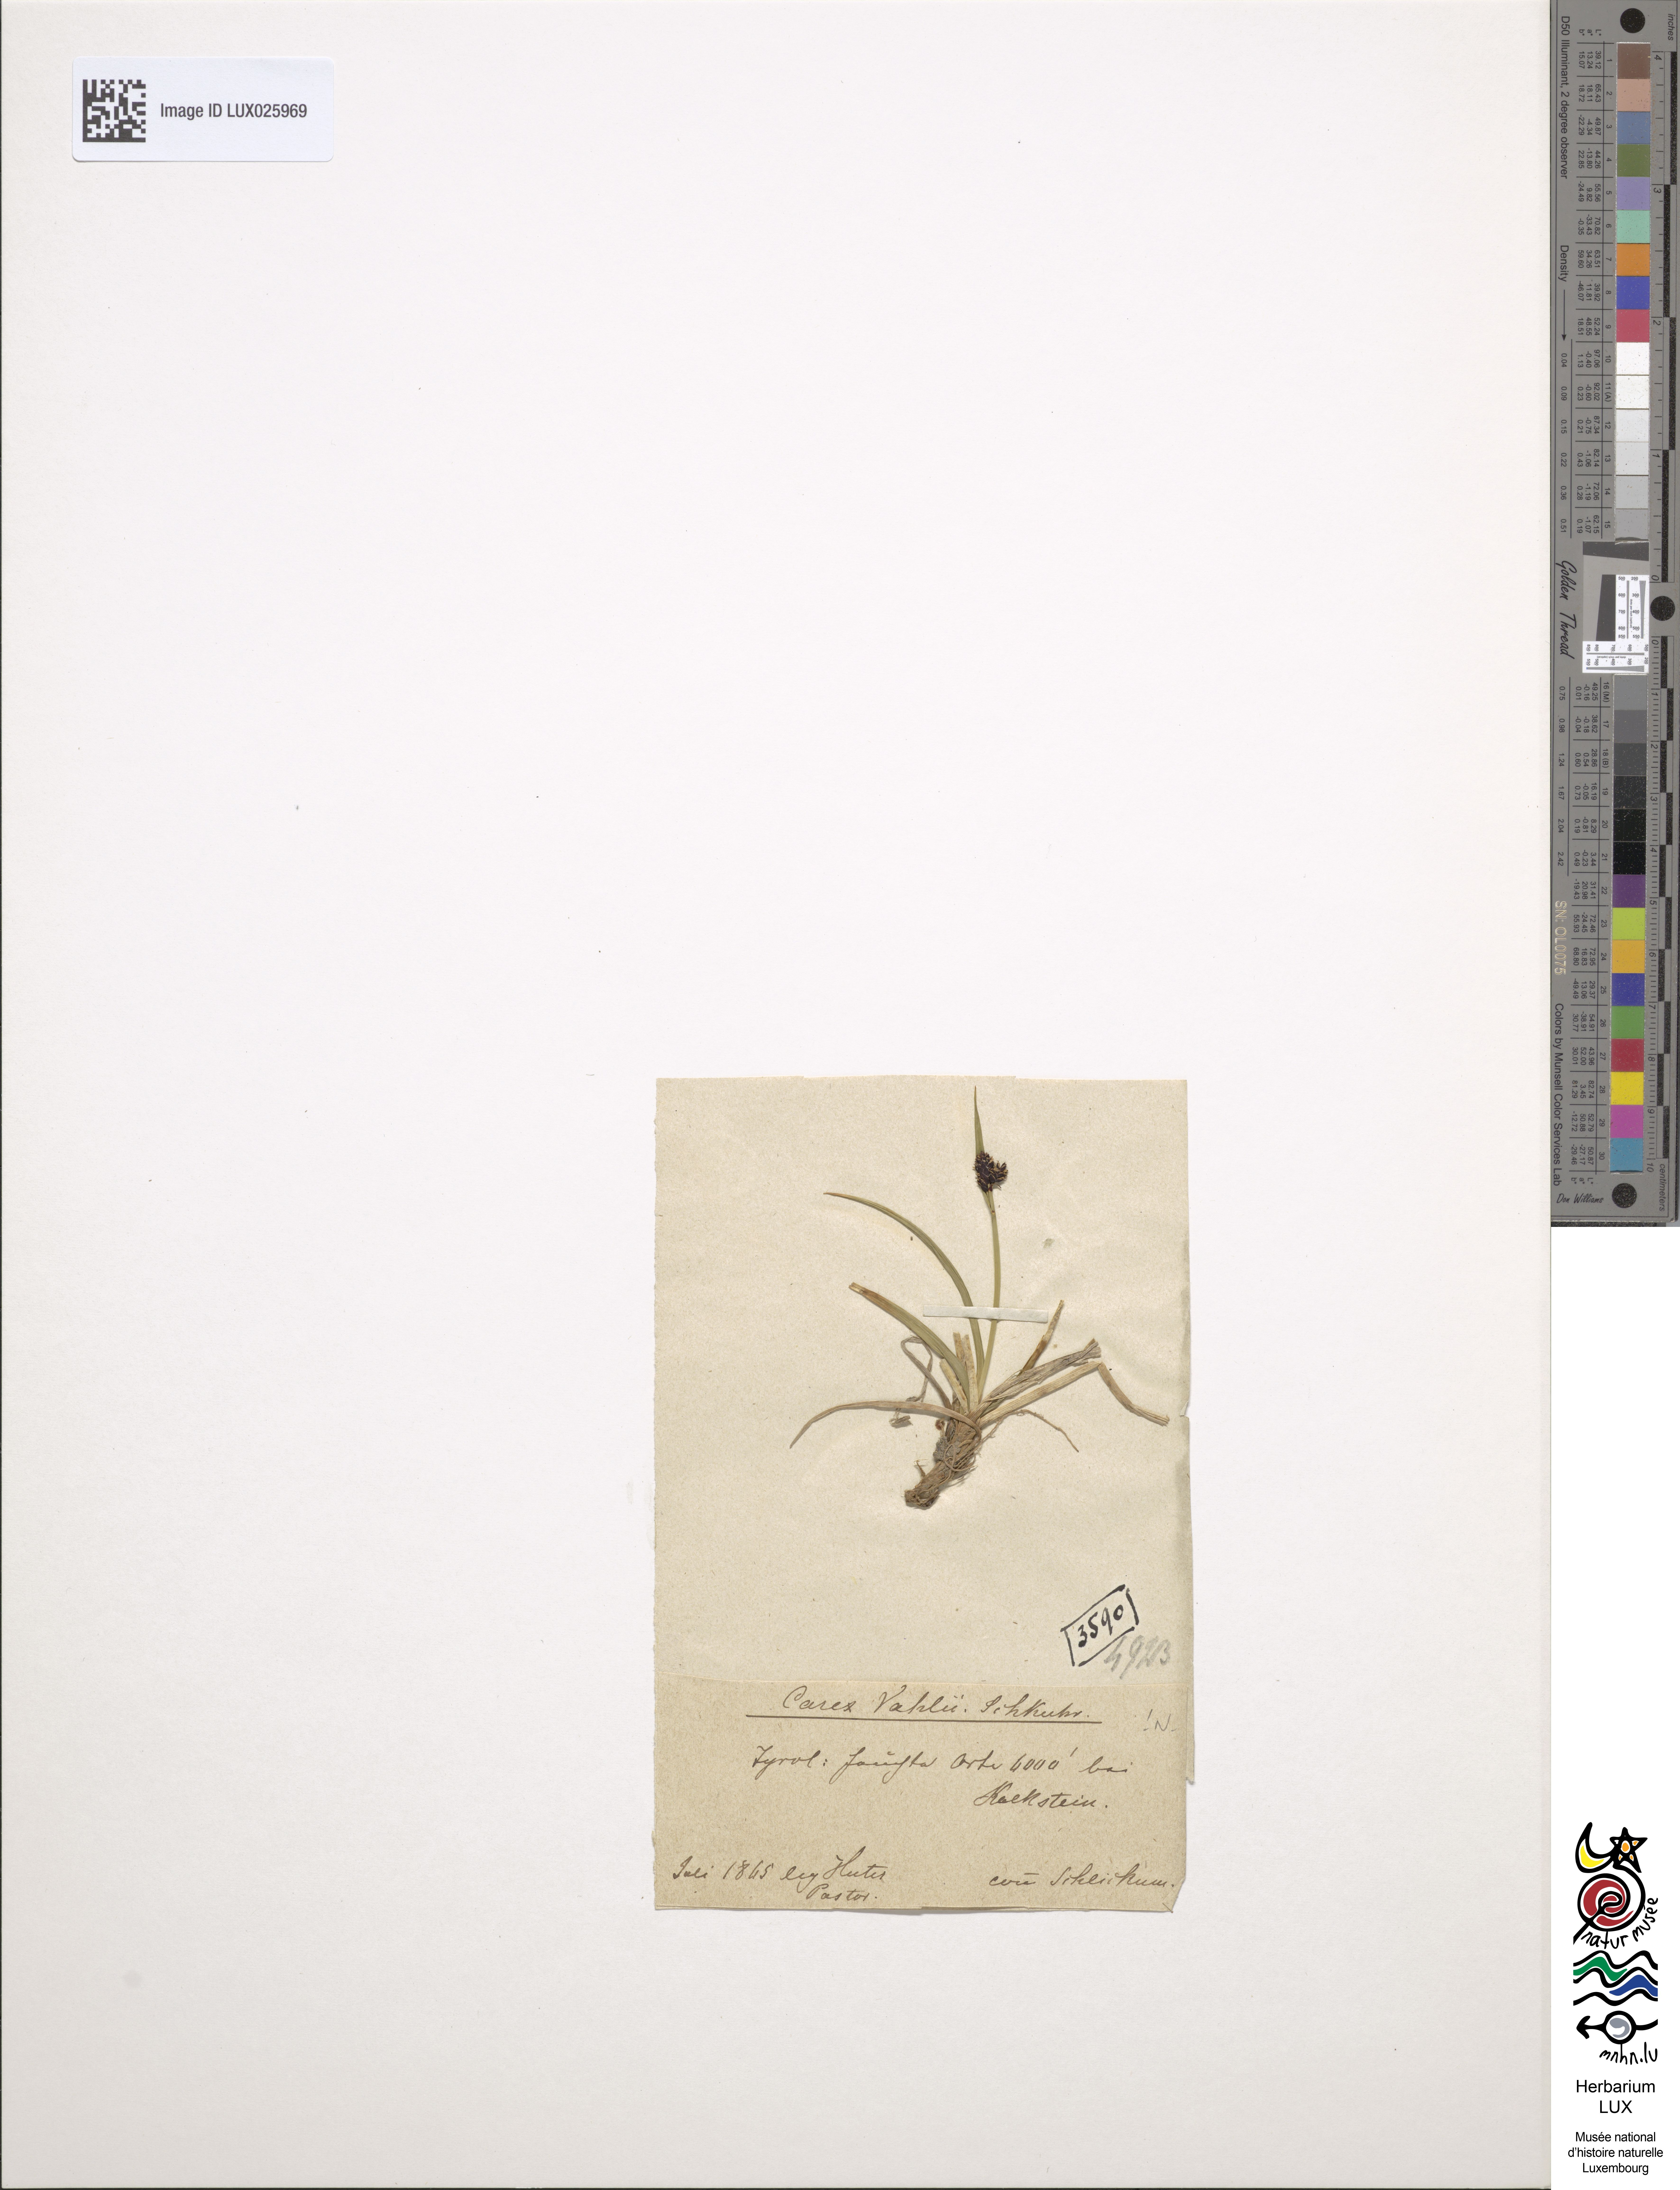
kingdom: Plantae
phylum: Tracheophyta
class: Liliopsida
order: Poales
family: Cyperaceae
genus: Carex
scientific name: Carex norvegica
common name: Close-headed alpine-sedge
